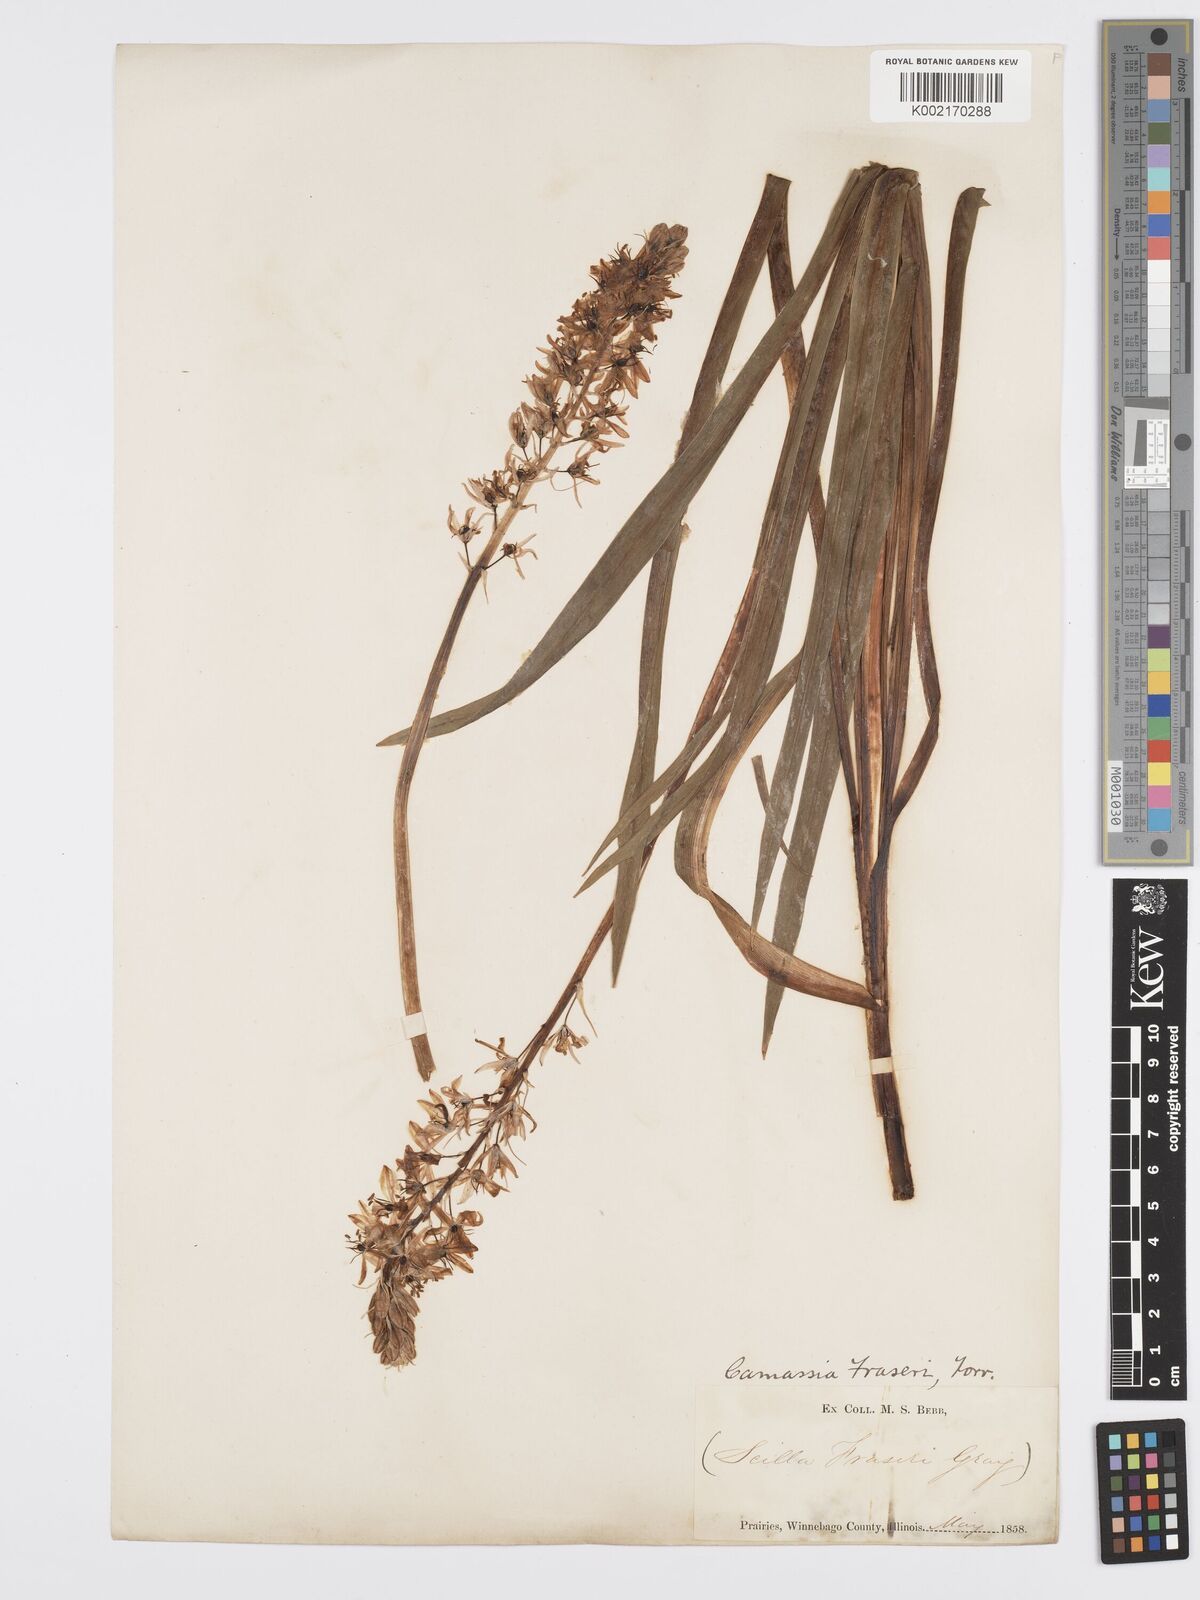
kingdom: Plantae
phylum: Tracheophyta
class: Liliopsida
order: Asparagales
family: Asparagaceae
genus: Camassia
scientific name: Camassia scilloides
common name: Wild hyacinth
